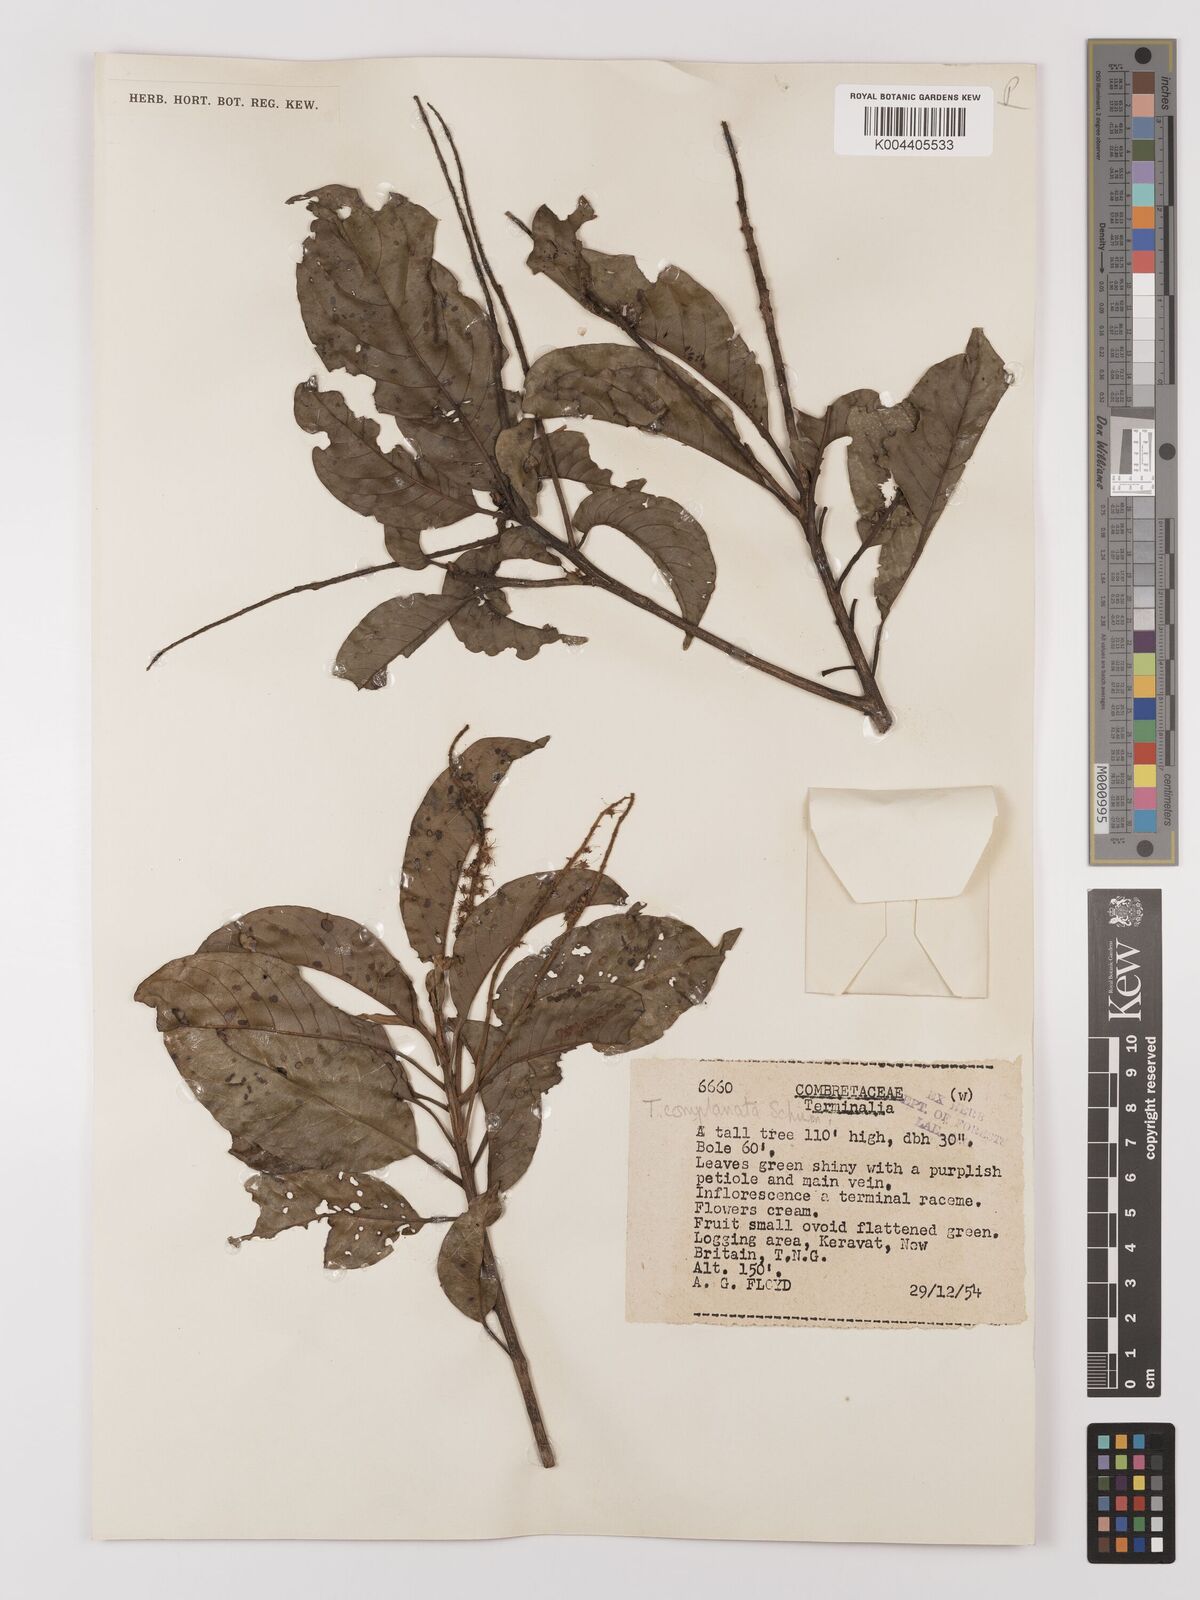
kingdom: Plantae
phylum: Tracheophyta
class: Magnoliopsida
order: Myrtales
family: Combretaceae
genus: Terminalia
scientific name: Terminalia
